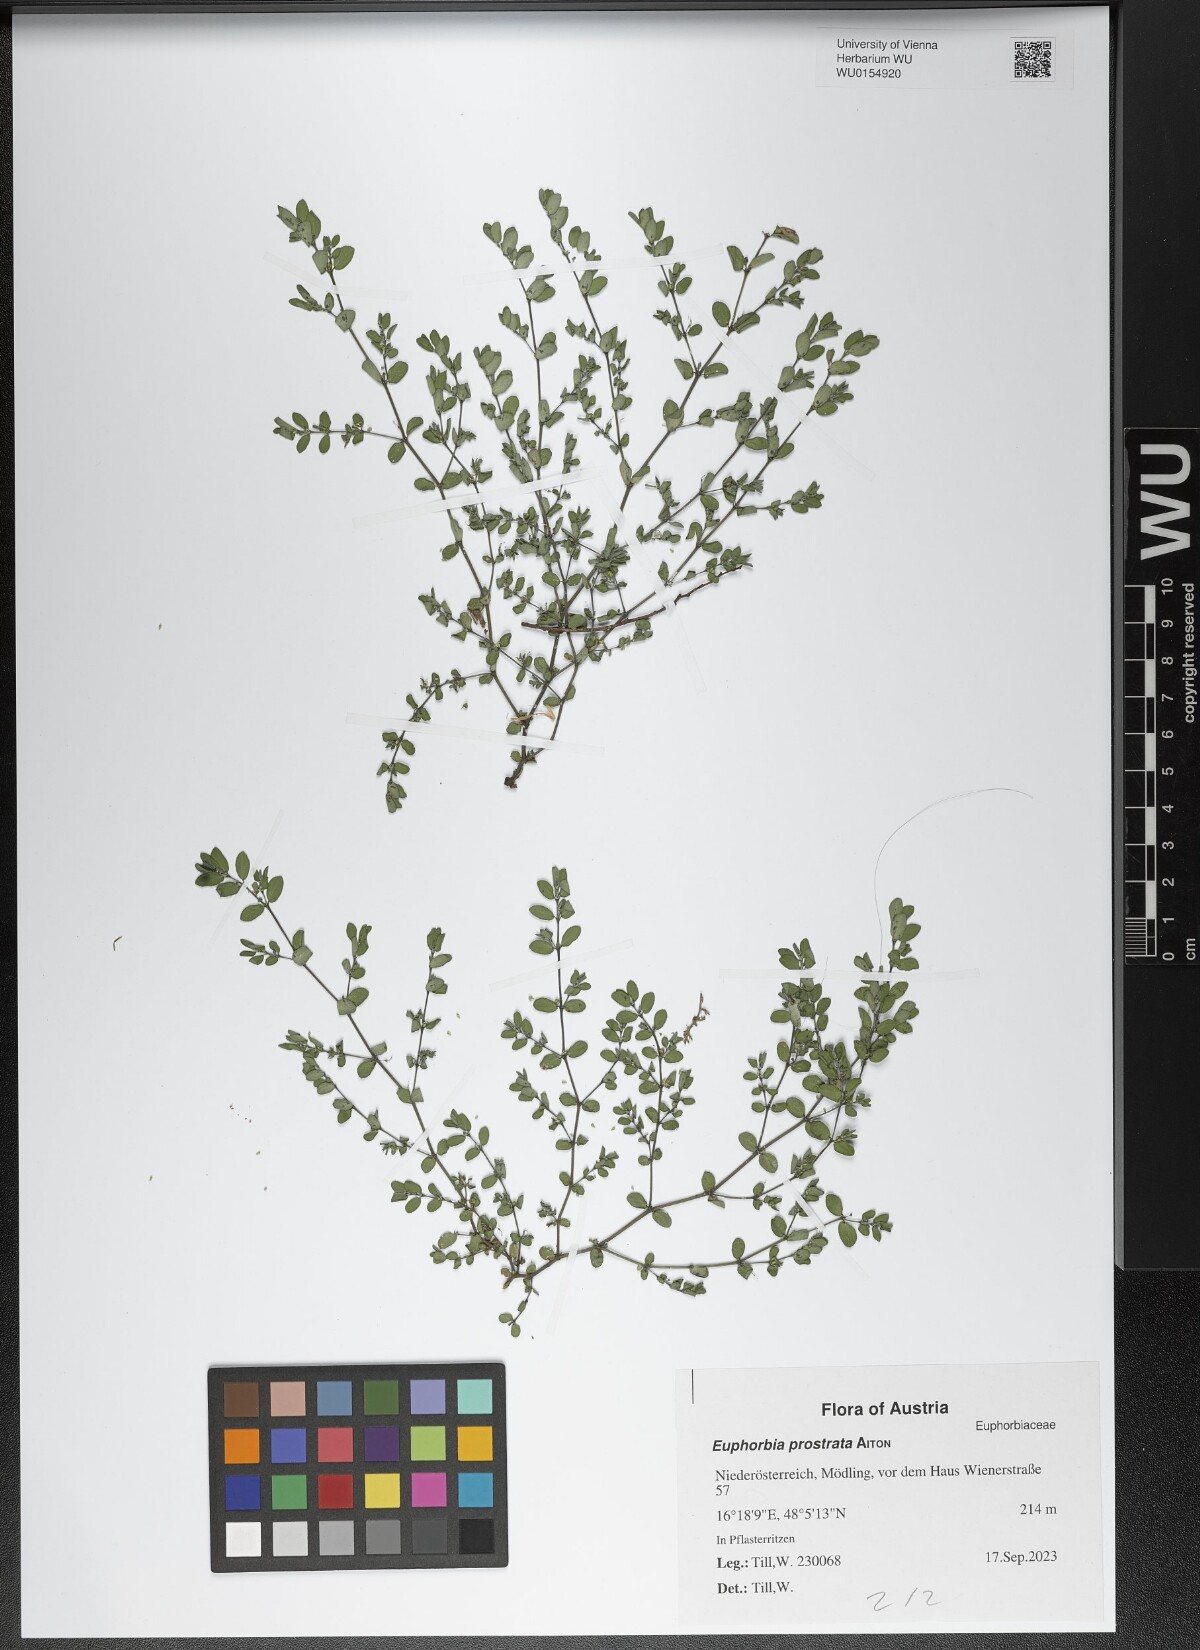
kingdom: Plantae
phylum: Tracheophyta
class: Magnoliopsida
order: Malpighiales
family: Euphorbiaceae
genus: Euphorbia
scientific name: Euphorbia prostrata
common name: Prostrate sandmat
